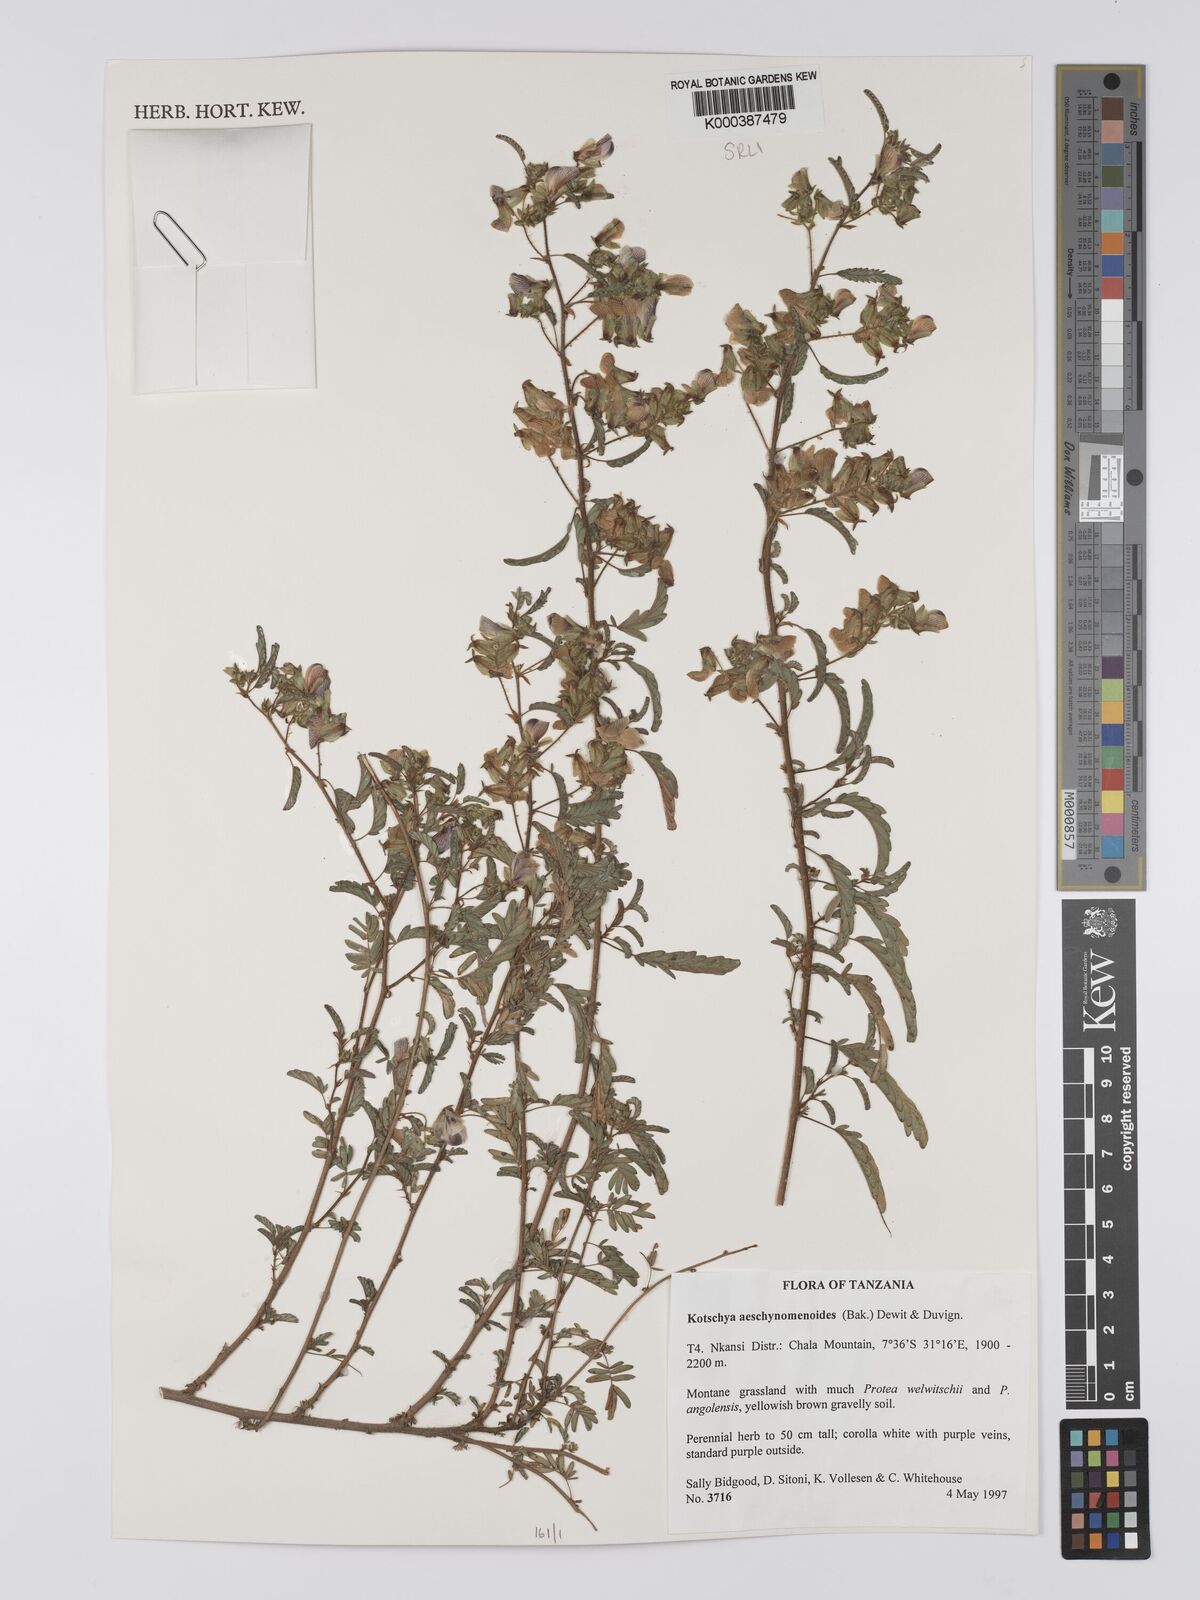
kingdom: Plantae
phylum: Tracheophyta
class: Magnoliopsida
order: Fabales
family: Fabaceae
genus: Kotschya
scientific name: Kotschya aeschynomenoides
